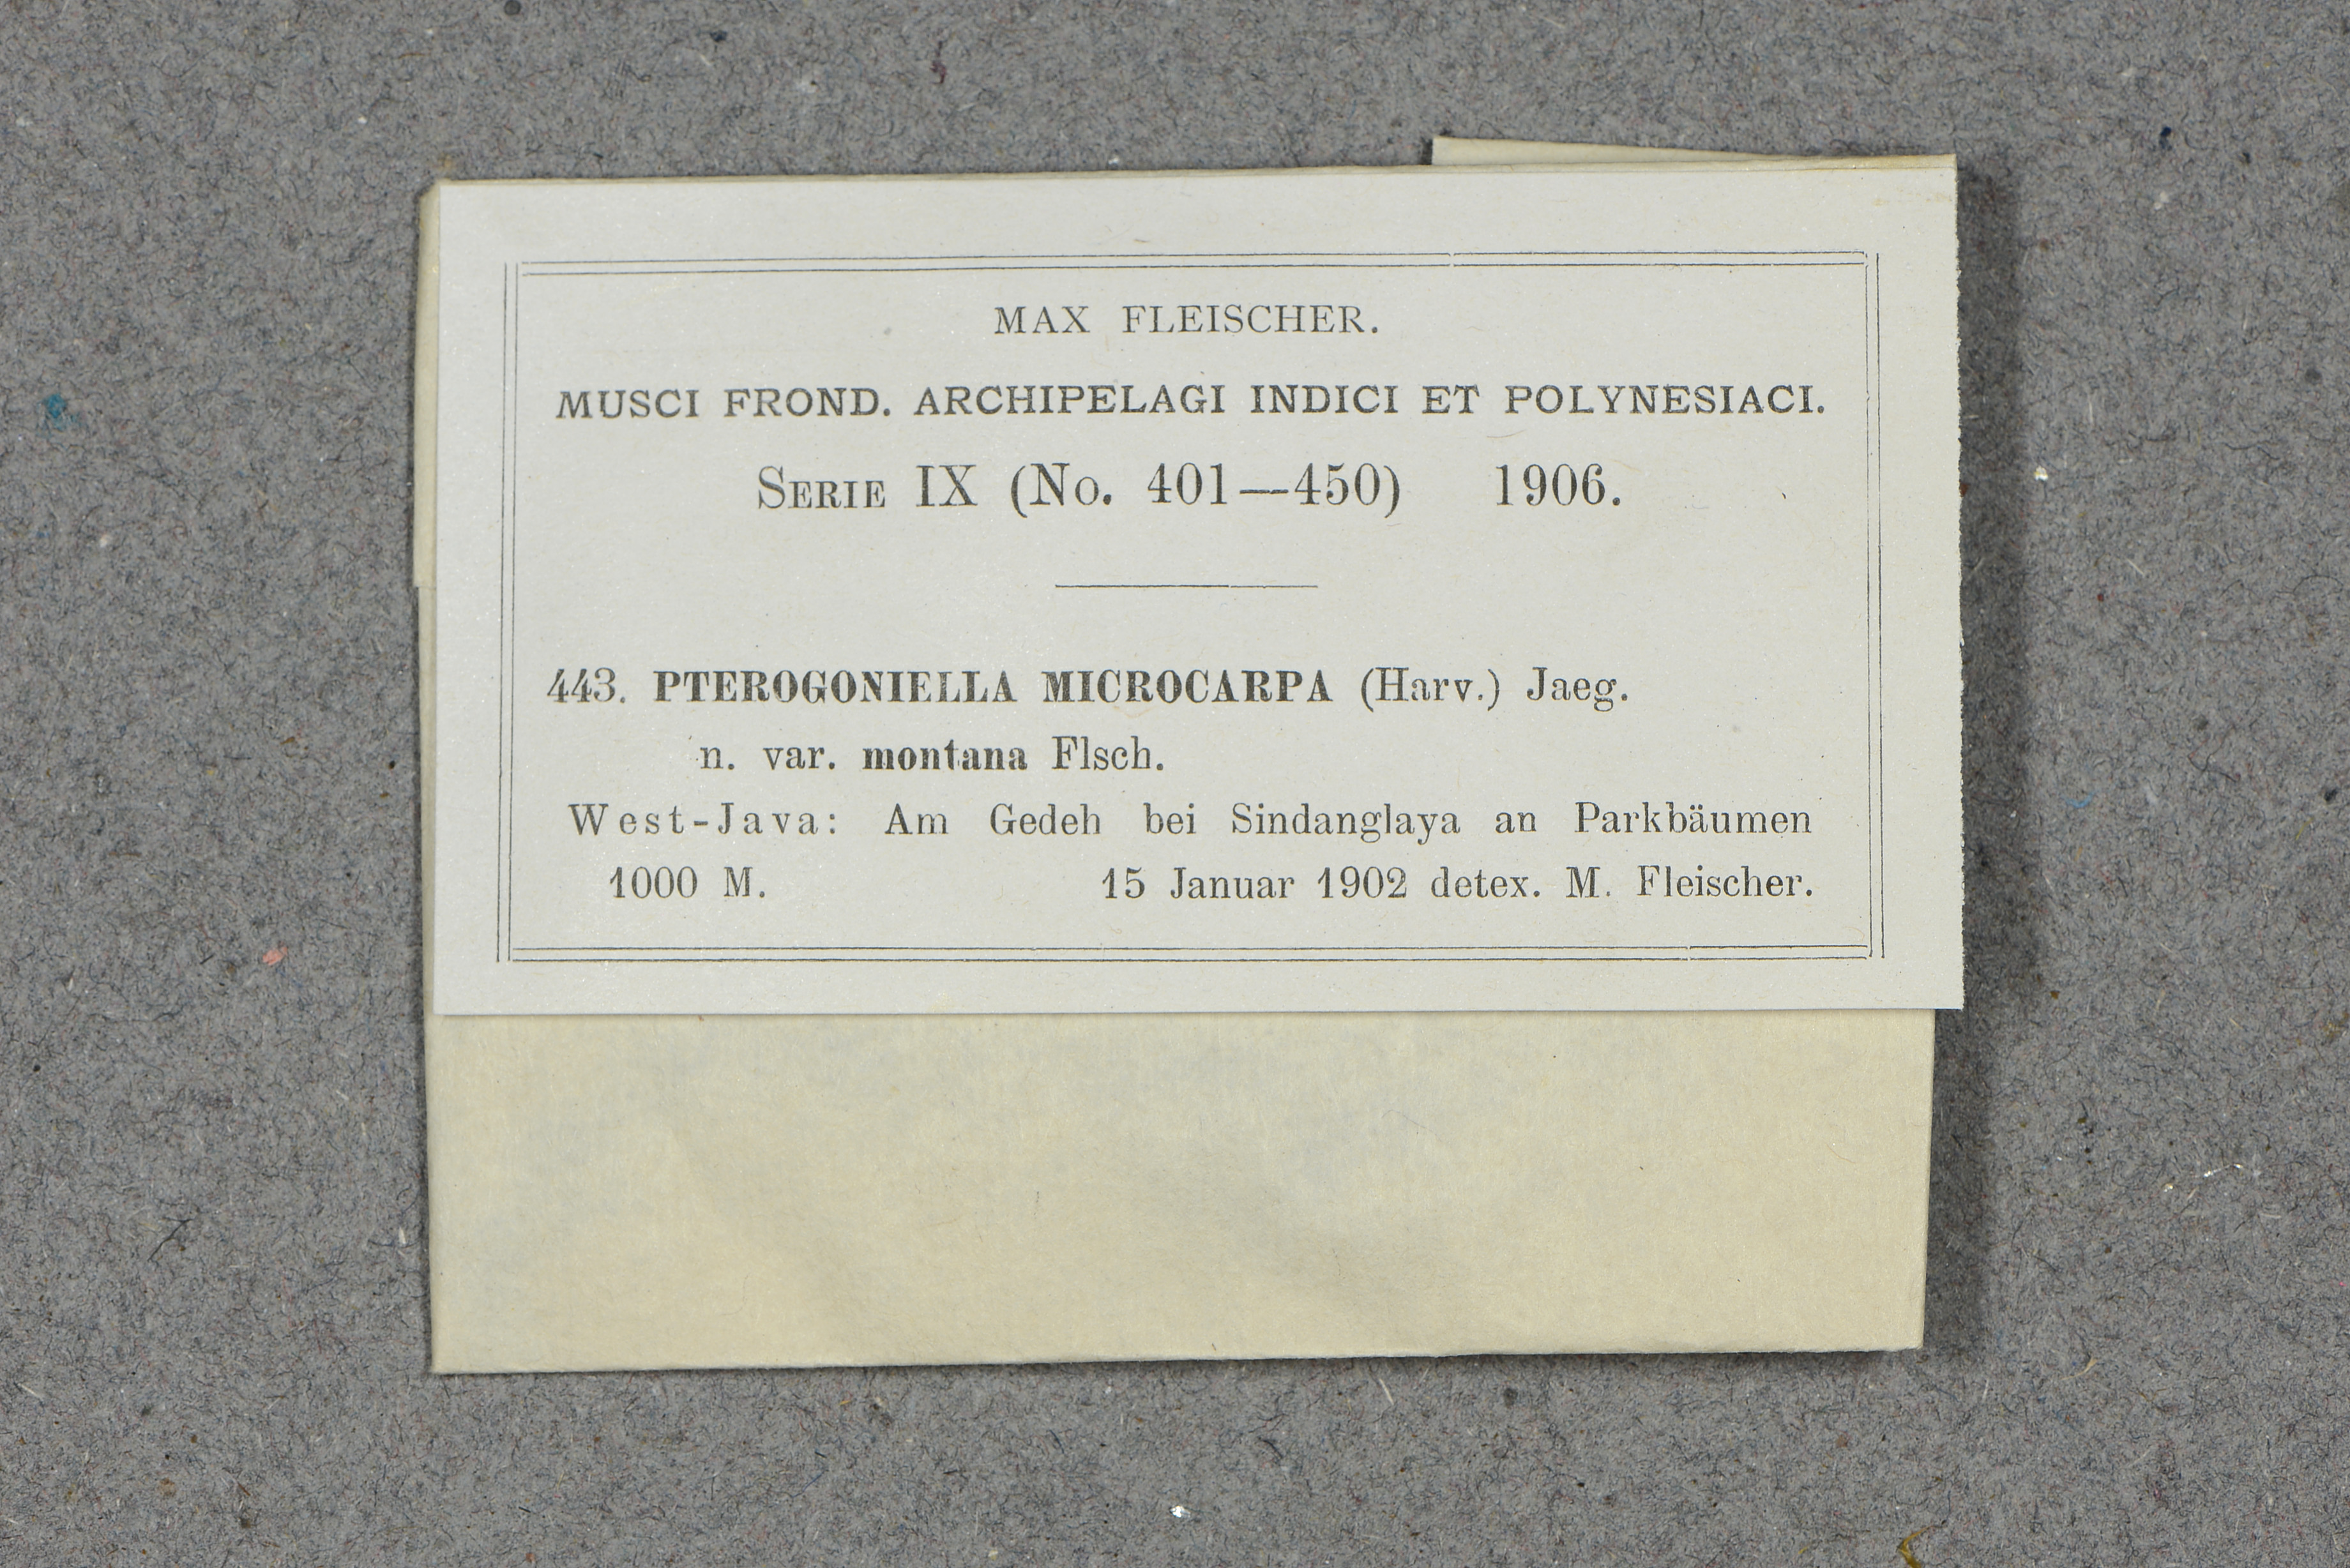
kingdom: Plantae
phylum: Bryophyta
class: Bryopsida
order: Hypnales
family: Sematophyllaceae
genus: Meiothecium
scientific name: Meiothecium
